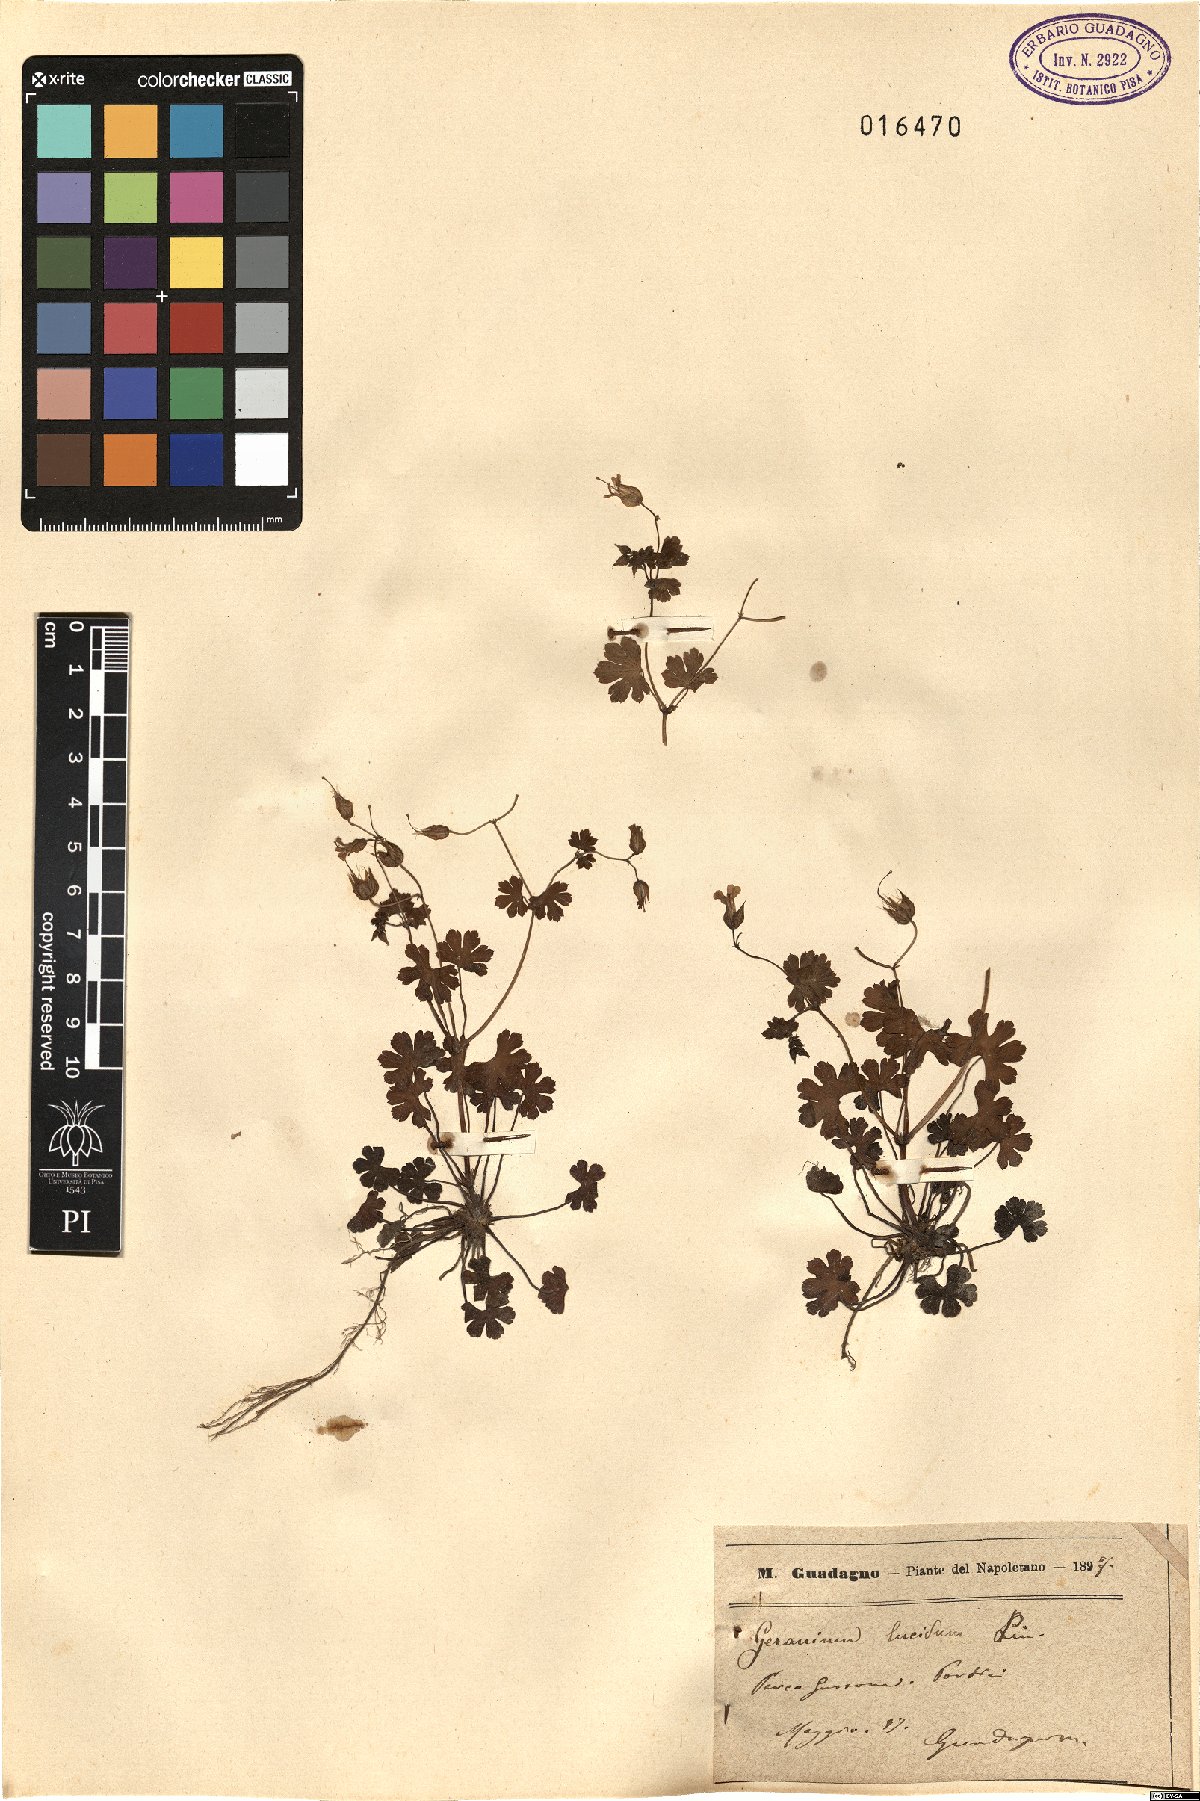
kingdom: Plantae
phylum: Tracheophyta
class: Magnoliopsida
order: Geraniales
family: Geraniaceae
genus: Geranium
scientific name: Geranium lucidum
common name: Shining crane's-bill
